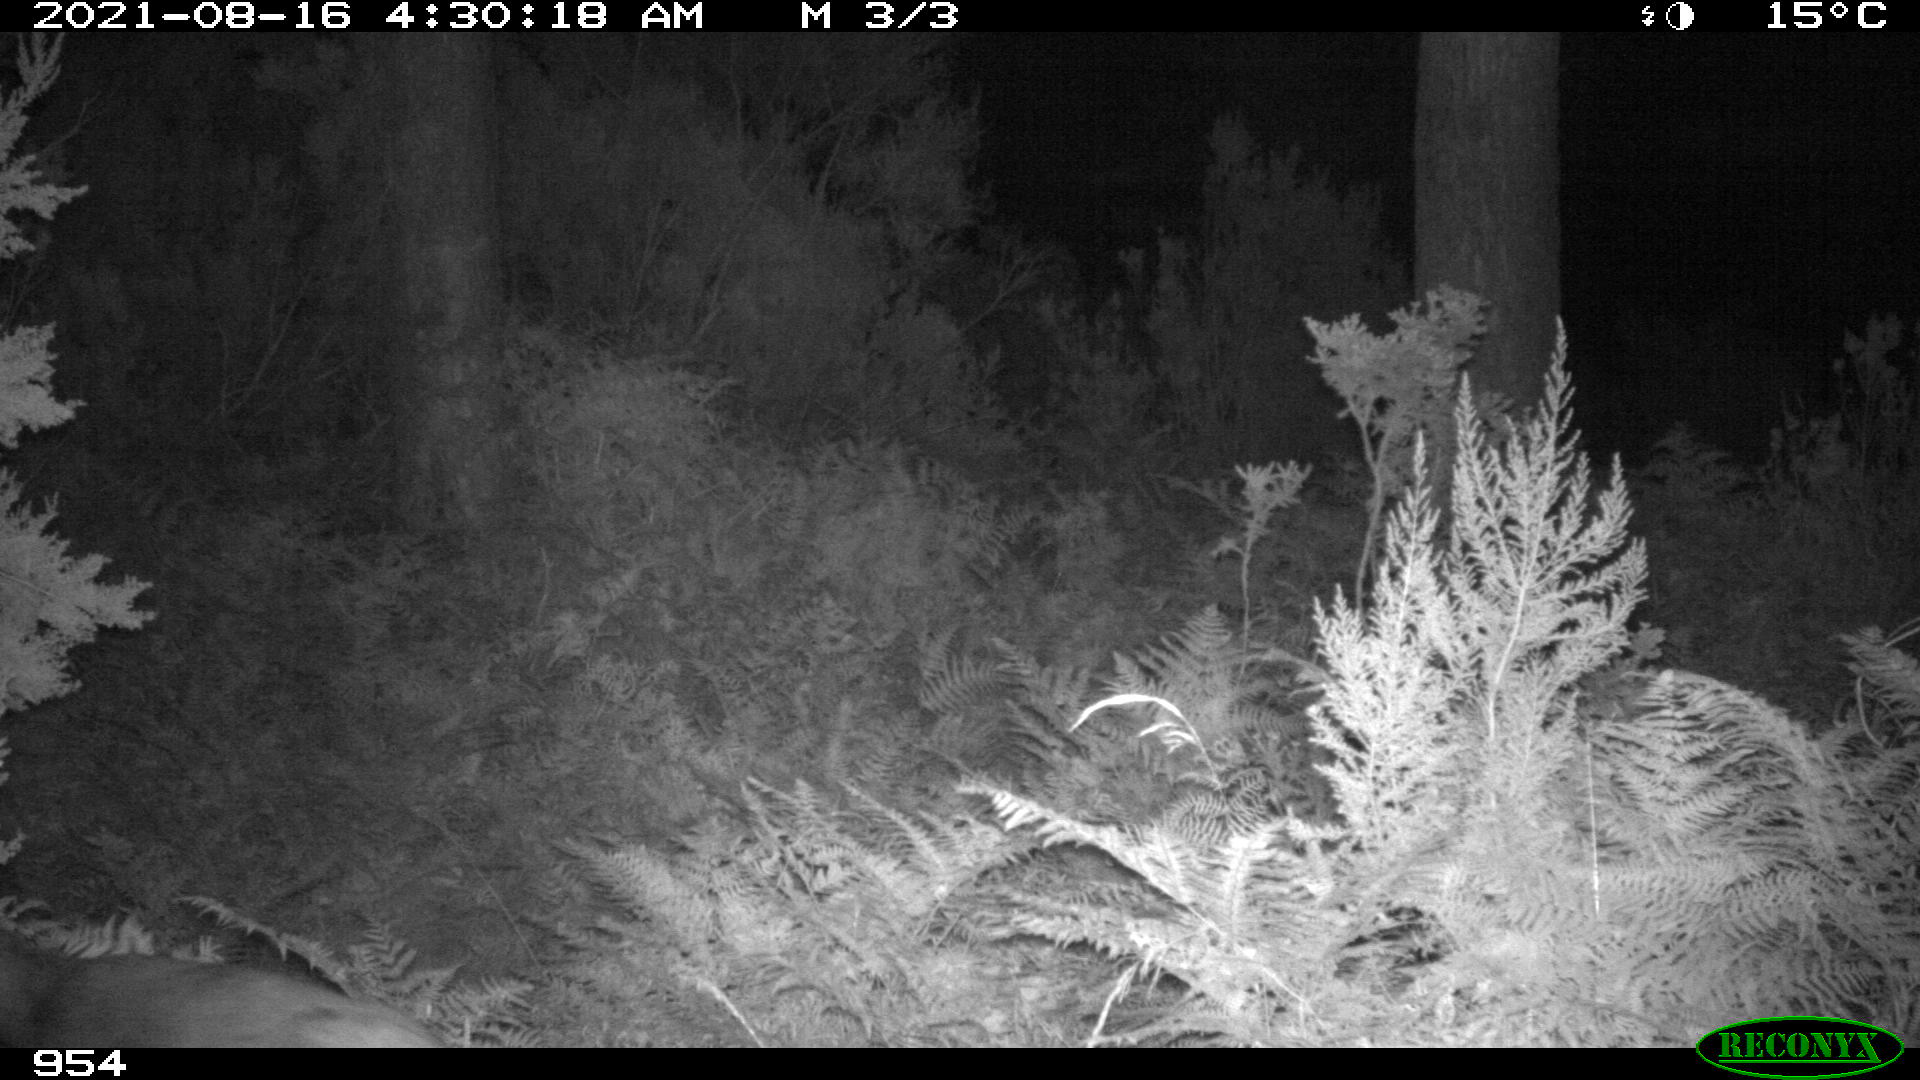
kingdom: Animalia
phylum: Chordata
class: Mammalia
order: Artiodactyla
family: Cervidae
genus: Capreolus
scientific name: Capreolus capreolus
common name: Western roe deer
